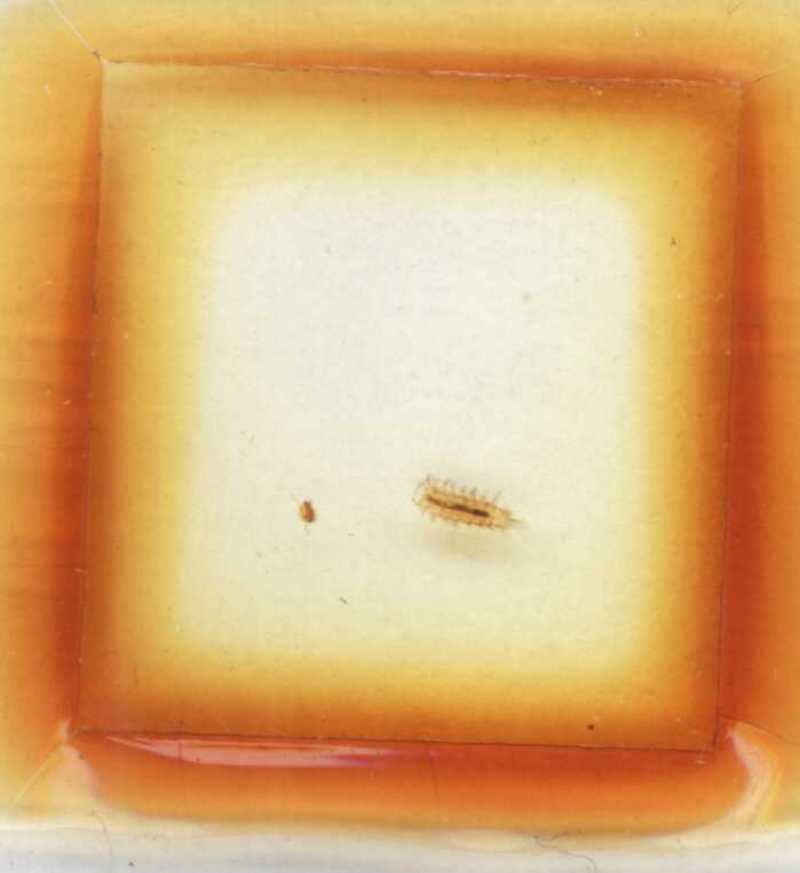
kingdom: Animalia
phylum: Arthropoda
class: Diplopoda
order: Polyxenida
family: Polyxenidae
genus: Polyxenus
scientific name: Polyxenus lagurus
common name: Bristly millipede
